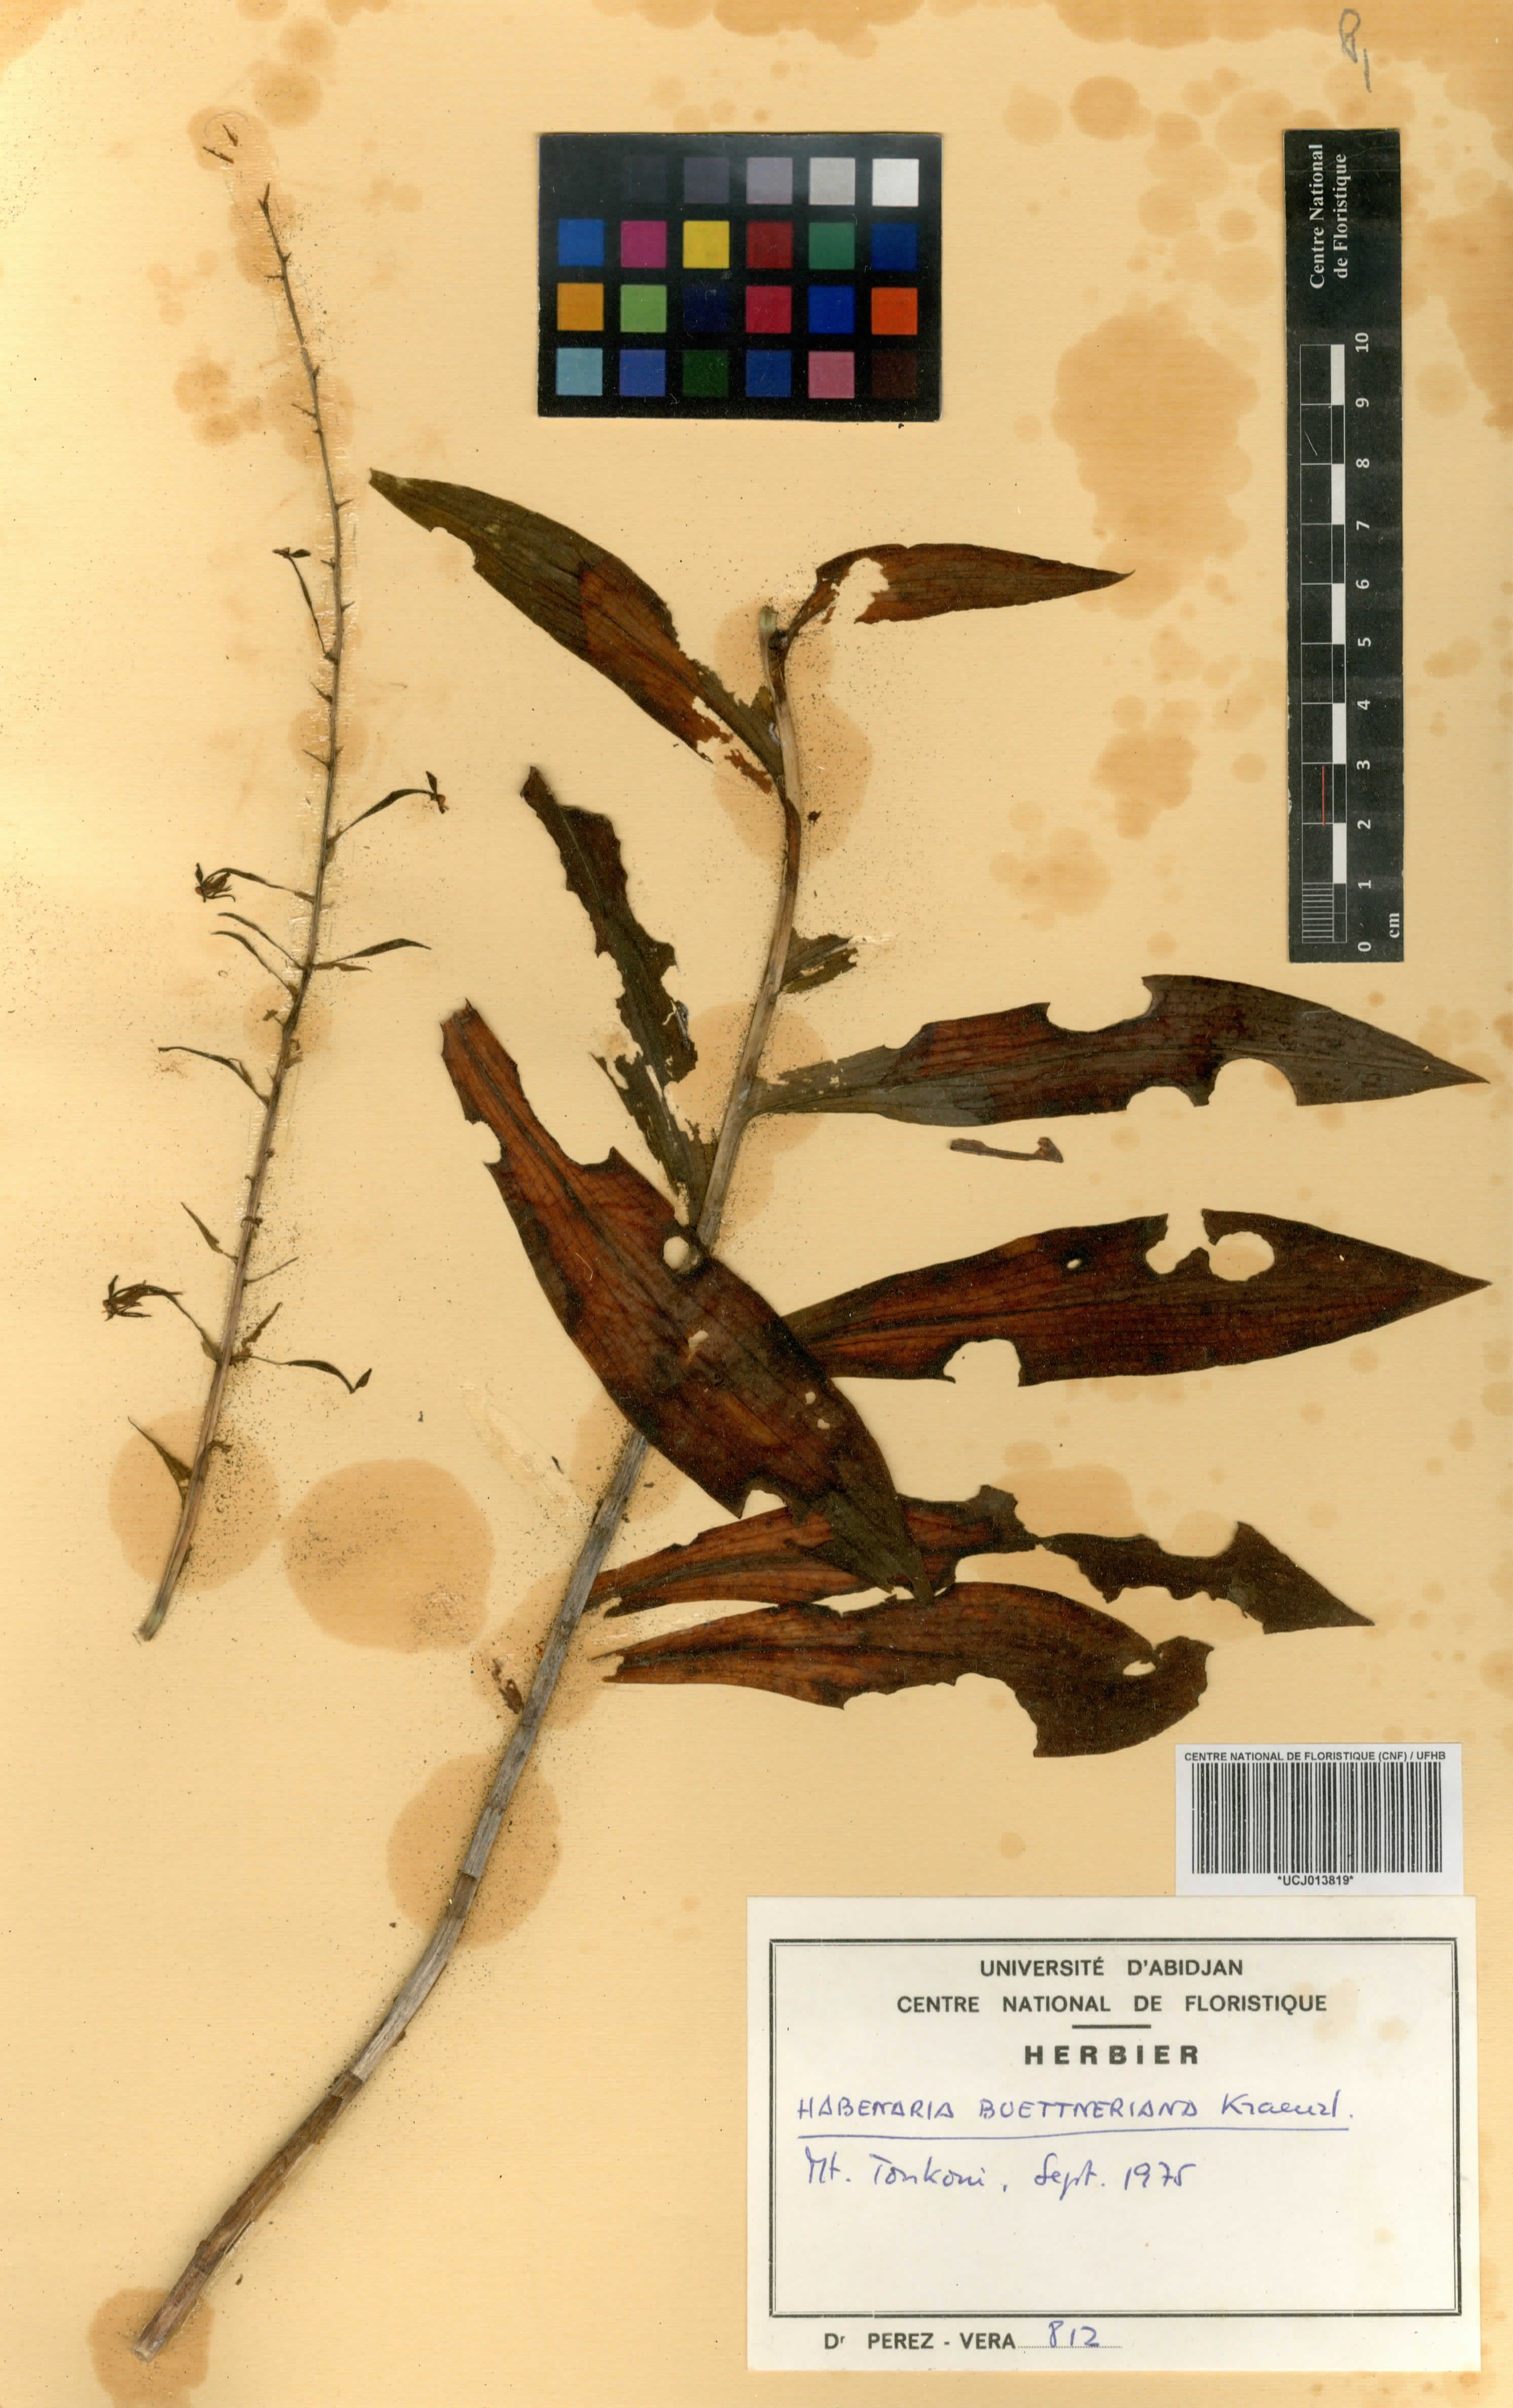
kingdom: Plantae
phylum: Tracheophyta
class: Liliopsida
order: Asparagales
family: Orchidaceae
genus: Habenaria
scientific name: Habenaria buettneriana
